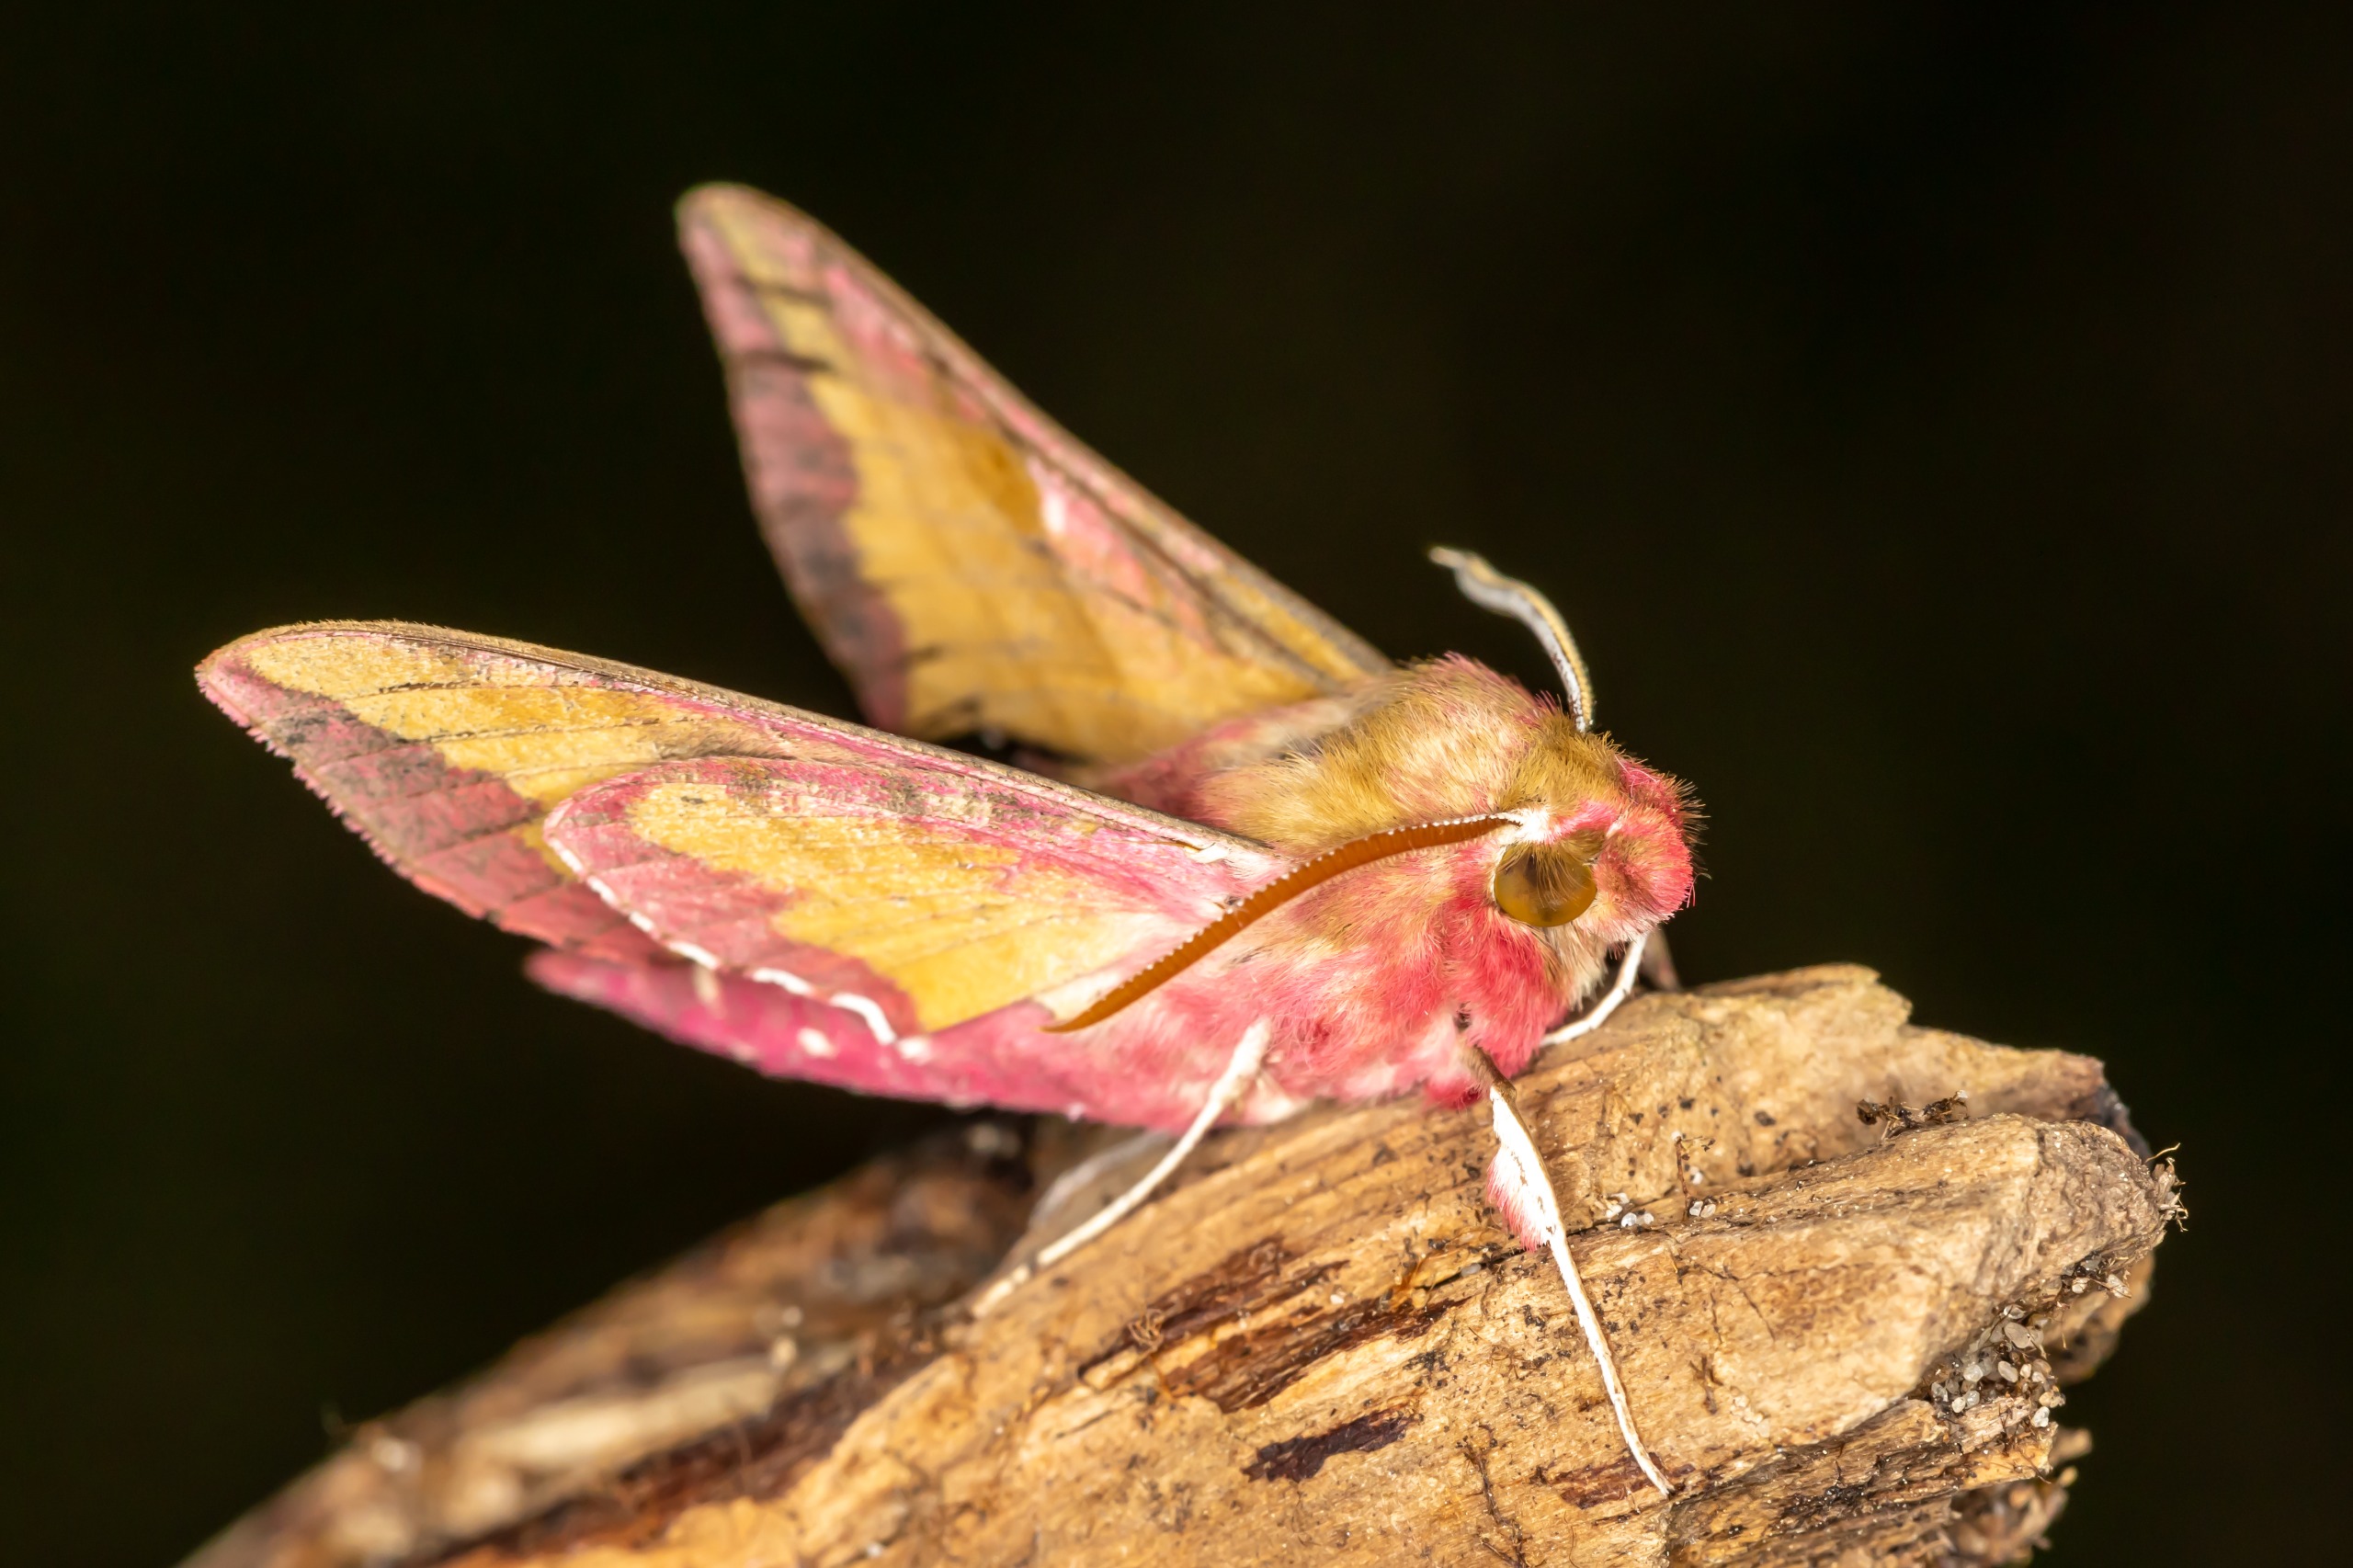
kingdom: Animalia
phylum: Arthropoda
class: Insecta
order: Lepidoptera
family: Sphingidae
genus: Deilephila
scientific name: Deilephila porcellus
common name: Lille vinsværmer
